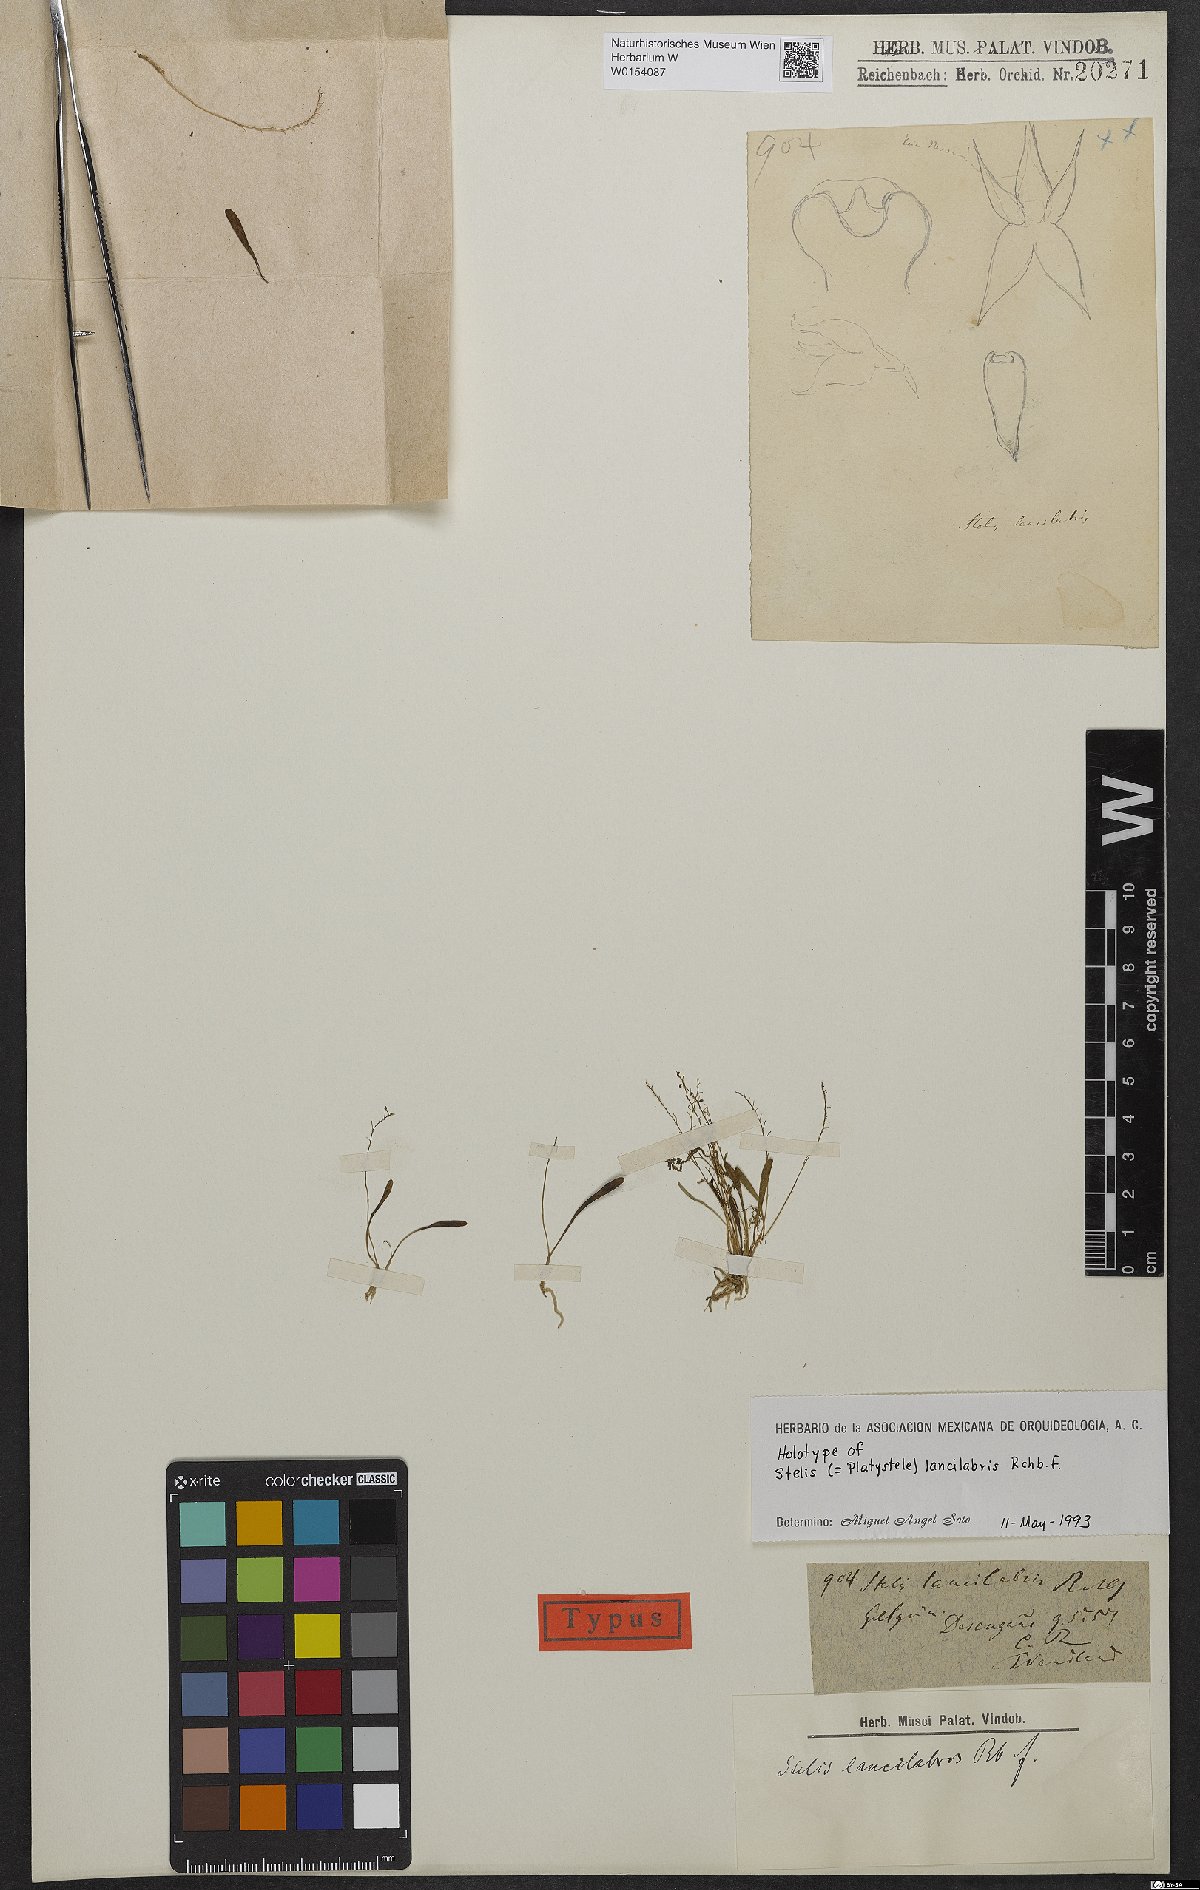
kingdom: Plantae
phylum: Tracheophyta
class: Liliopsida
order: Asparagales
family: Orchidaceae
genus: Platystele
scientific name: Platystele lancilabris
